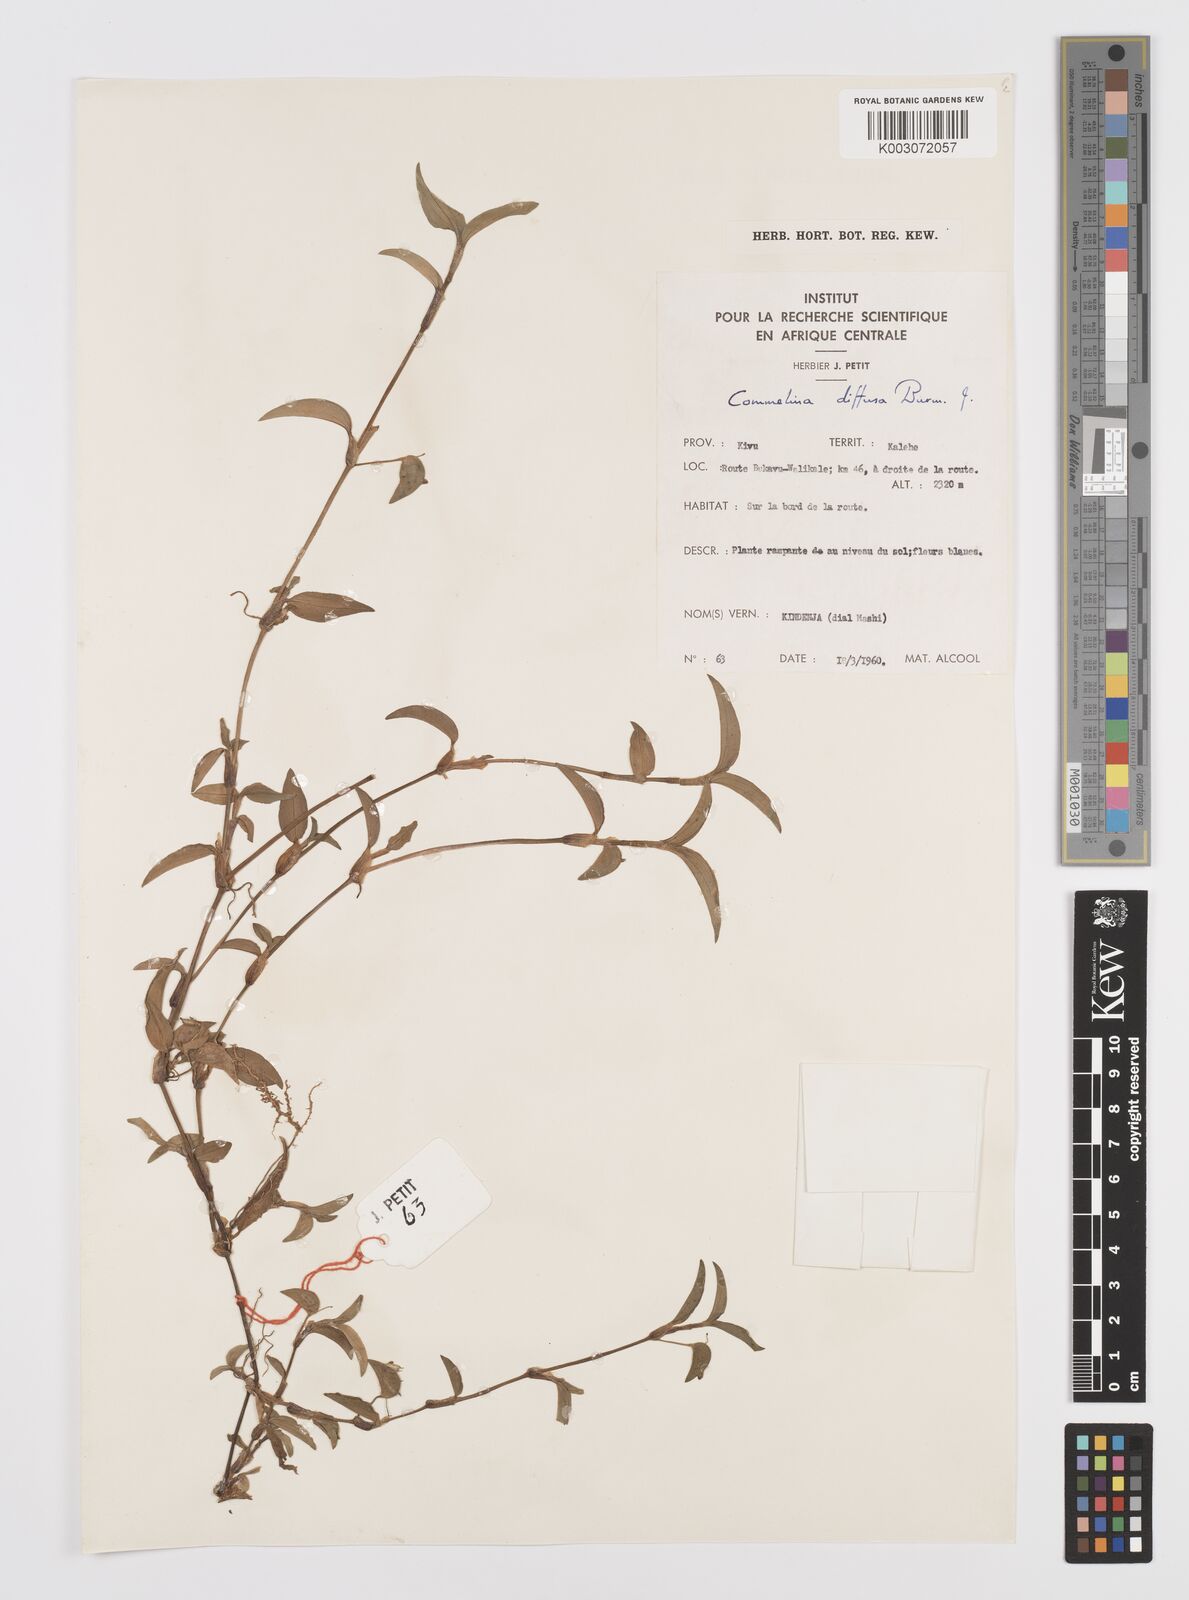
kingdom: Plantae
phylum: Tracheophyta
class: Liliopsida
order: Commelinales
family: Commelinaceae
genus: Commelina
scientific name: Commelina diffusa
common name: Climbing dayflower
